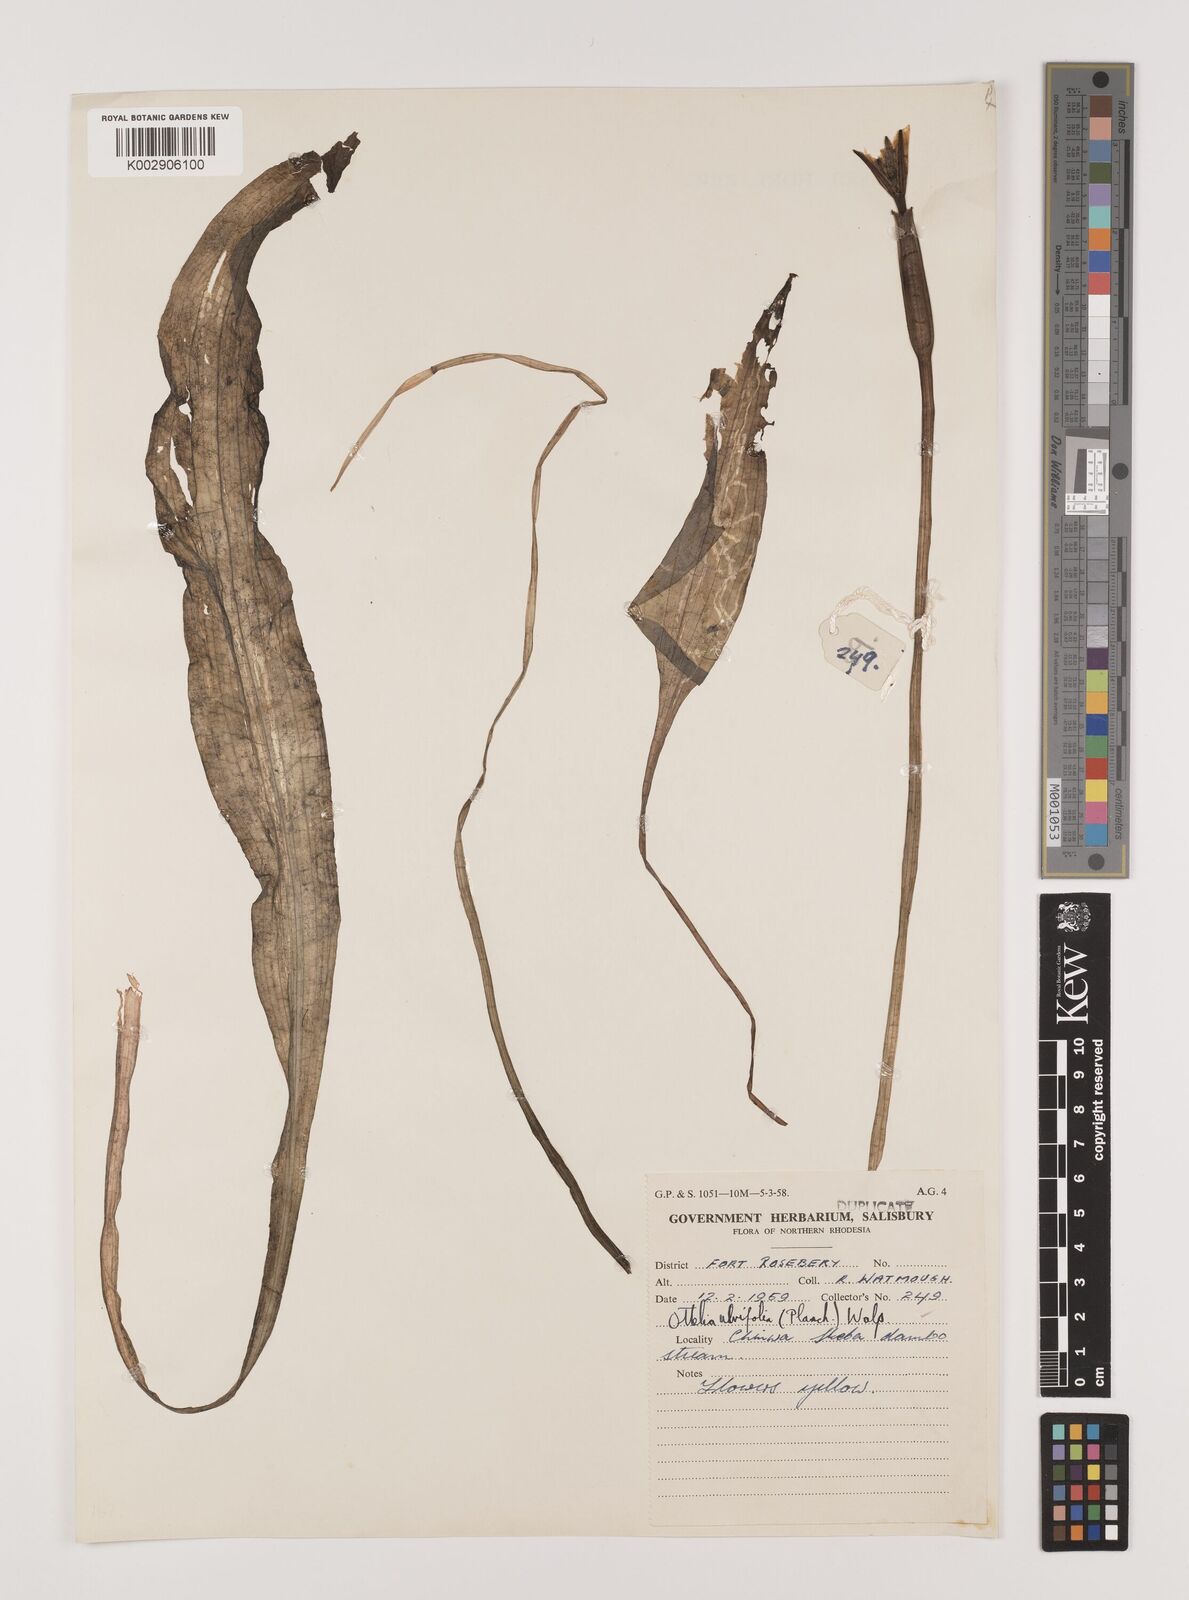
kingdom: Plantae
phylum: Tracheophyta
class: Liliopsida
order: Alismatales
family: Hydrocharitaceae
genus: Ottelia
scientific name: Ottelia ulvifolia
